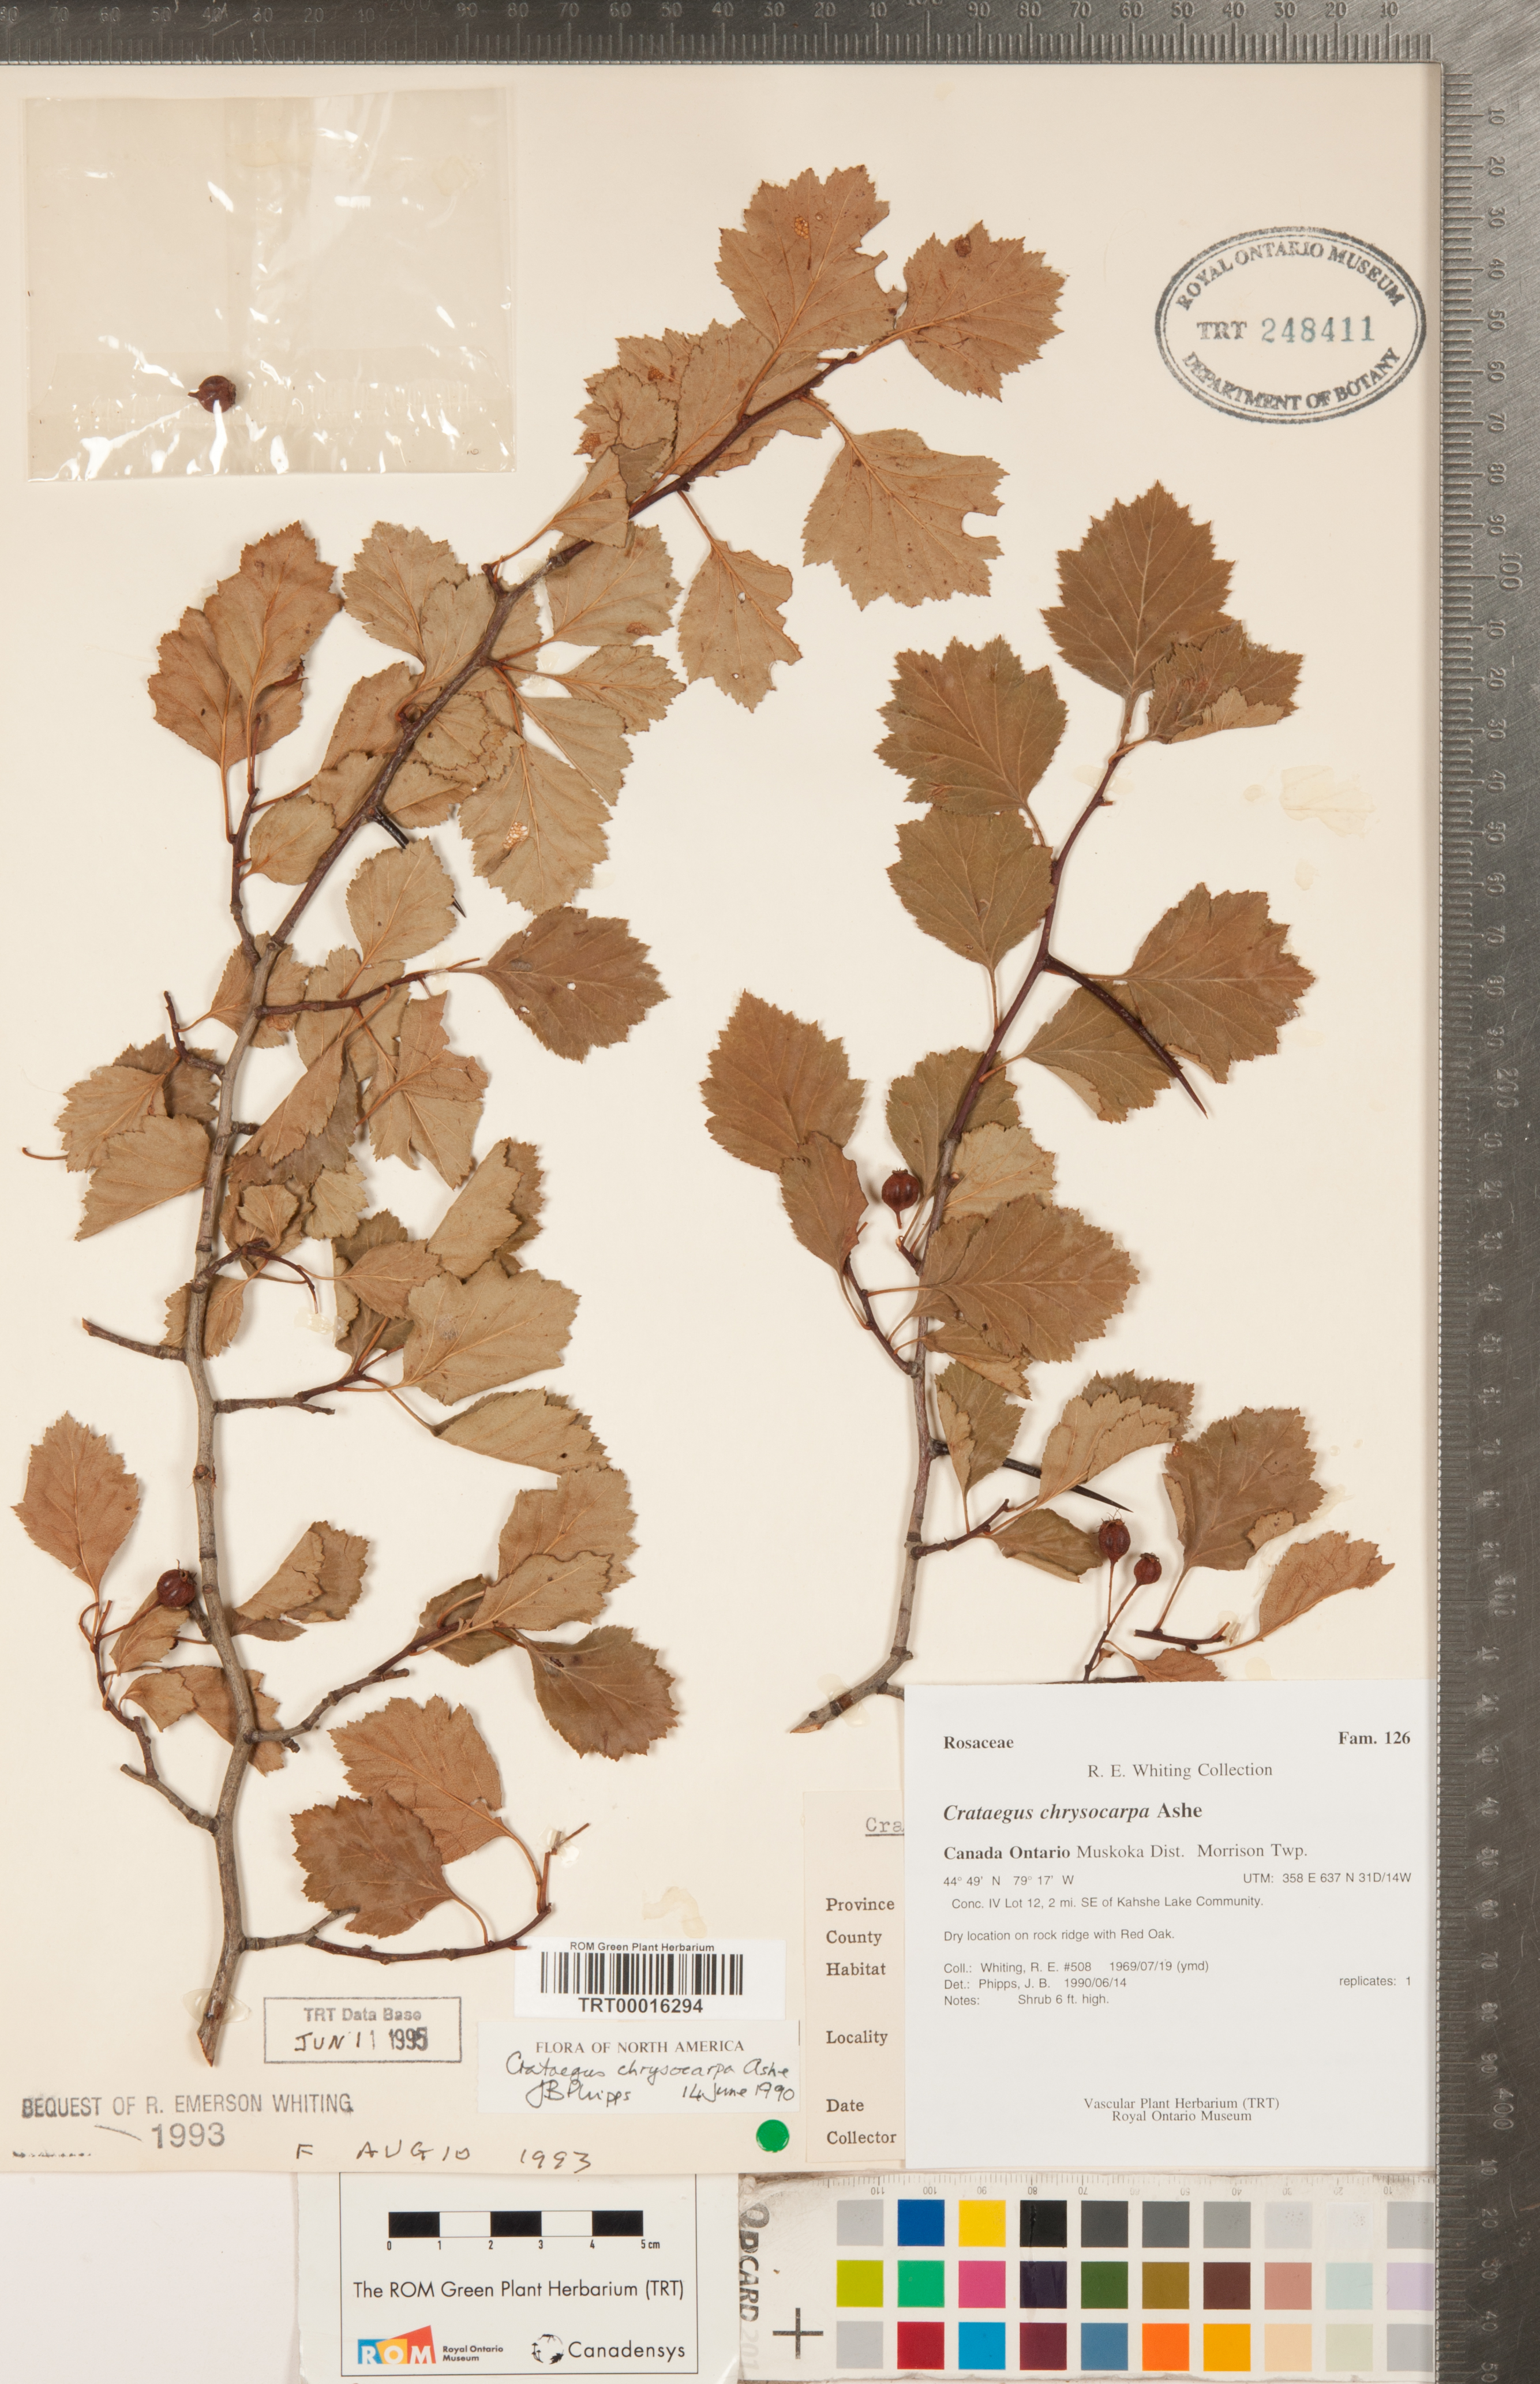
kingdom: Plantae
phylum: Tracheophyta
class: Magnoliopsida
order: Rosales
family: Rosaceae
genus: Crataegus
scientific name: Crataegus chrysocarpa
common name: Fire-berry hawthorn
